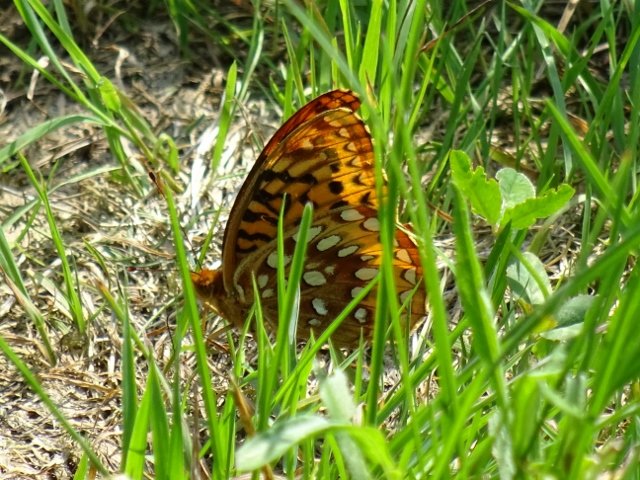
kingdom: Animalia
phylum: Arthropoda
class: Insecta
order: Lepidoptera
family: Nymphalidae
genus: Speyeria
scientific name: Speyeria cybele
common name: Great Spangled Fritillary
